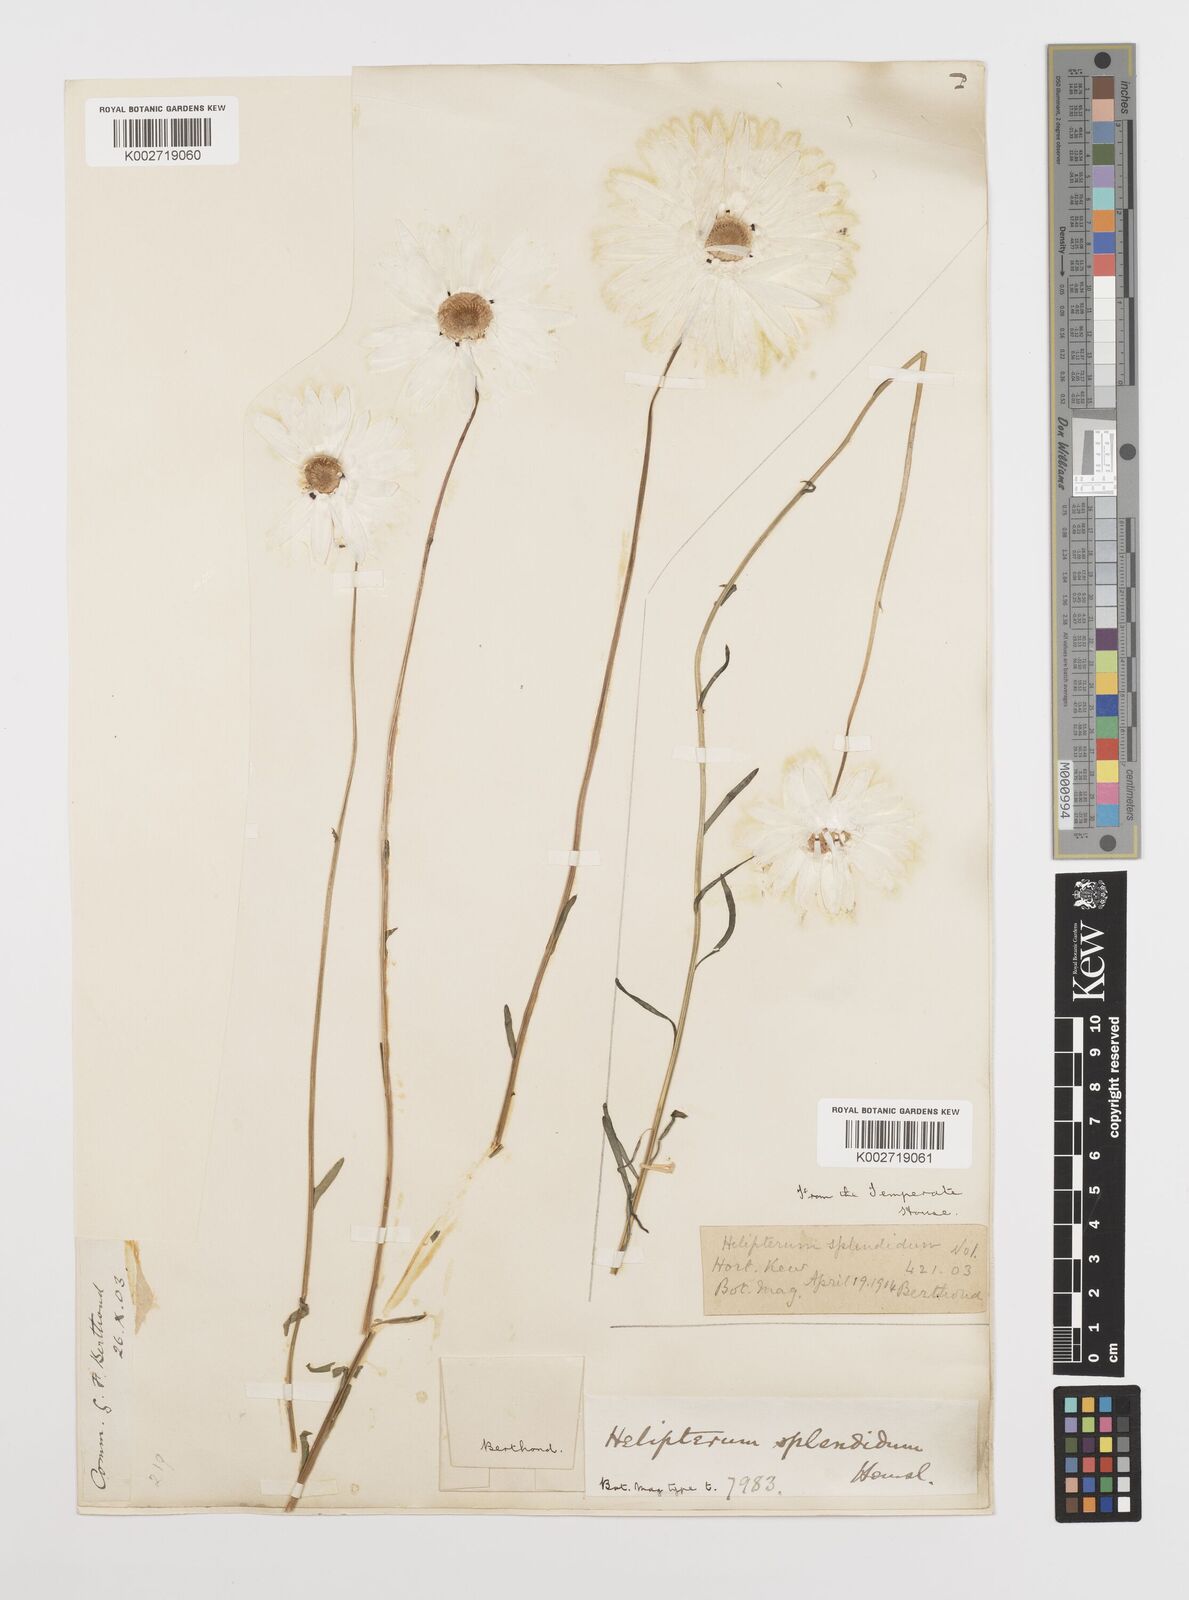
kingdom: Plantae
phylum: Tracheophyta
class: Magnoliopsida
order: Asterales
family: Asteraceae
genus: Rhodanthe
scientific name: Rhodanthe chlorocephala
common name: Rosy sunray
